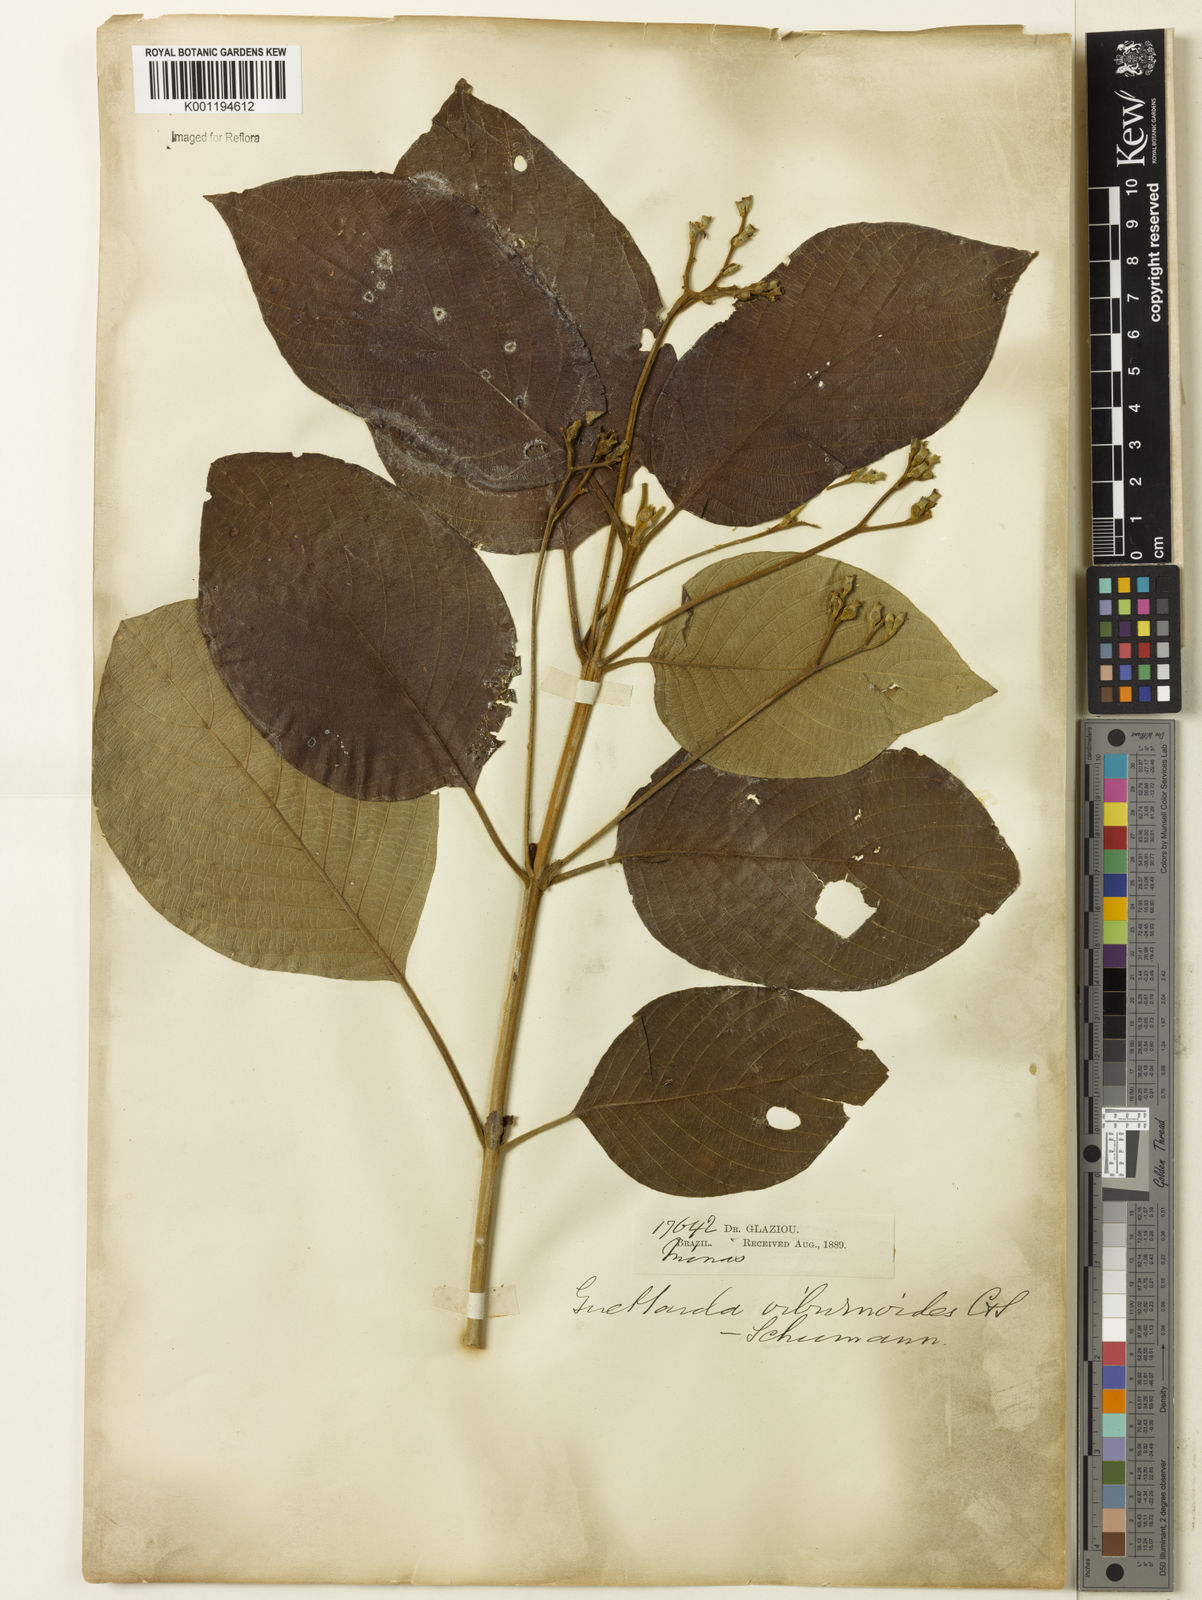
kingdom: Plantae
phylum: Tracheophyta
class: Magnoliopsida
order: Gentianales
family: Rubiaceae
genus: Guettarda
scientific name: Guettarda viburnoides
